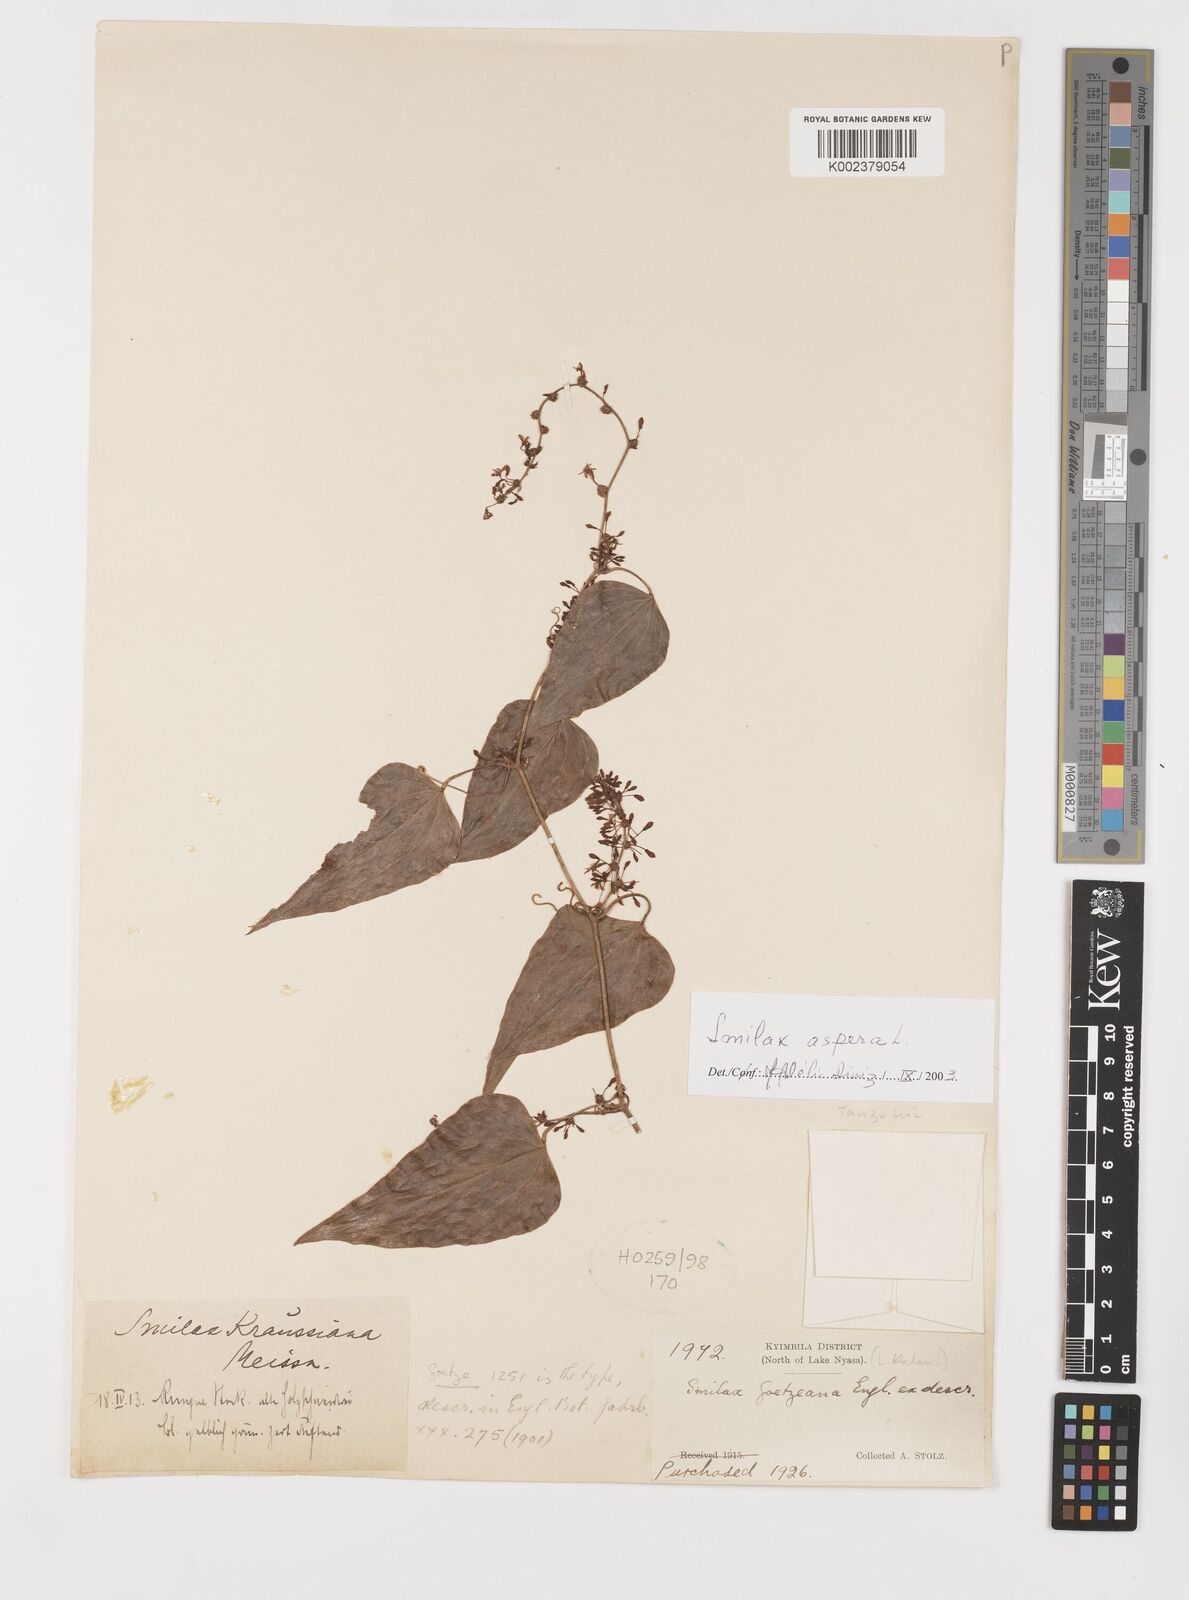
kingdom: Plantae
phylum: Tracheophyta
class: Liliopsida
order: Liliales
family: Smilacaceae
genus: Smilax
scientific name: Smilax aspera
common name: Common smilax
